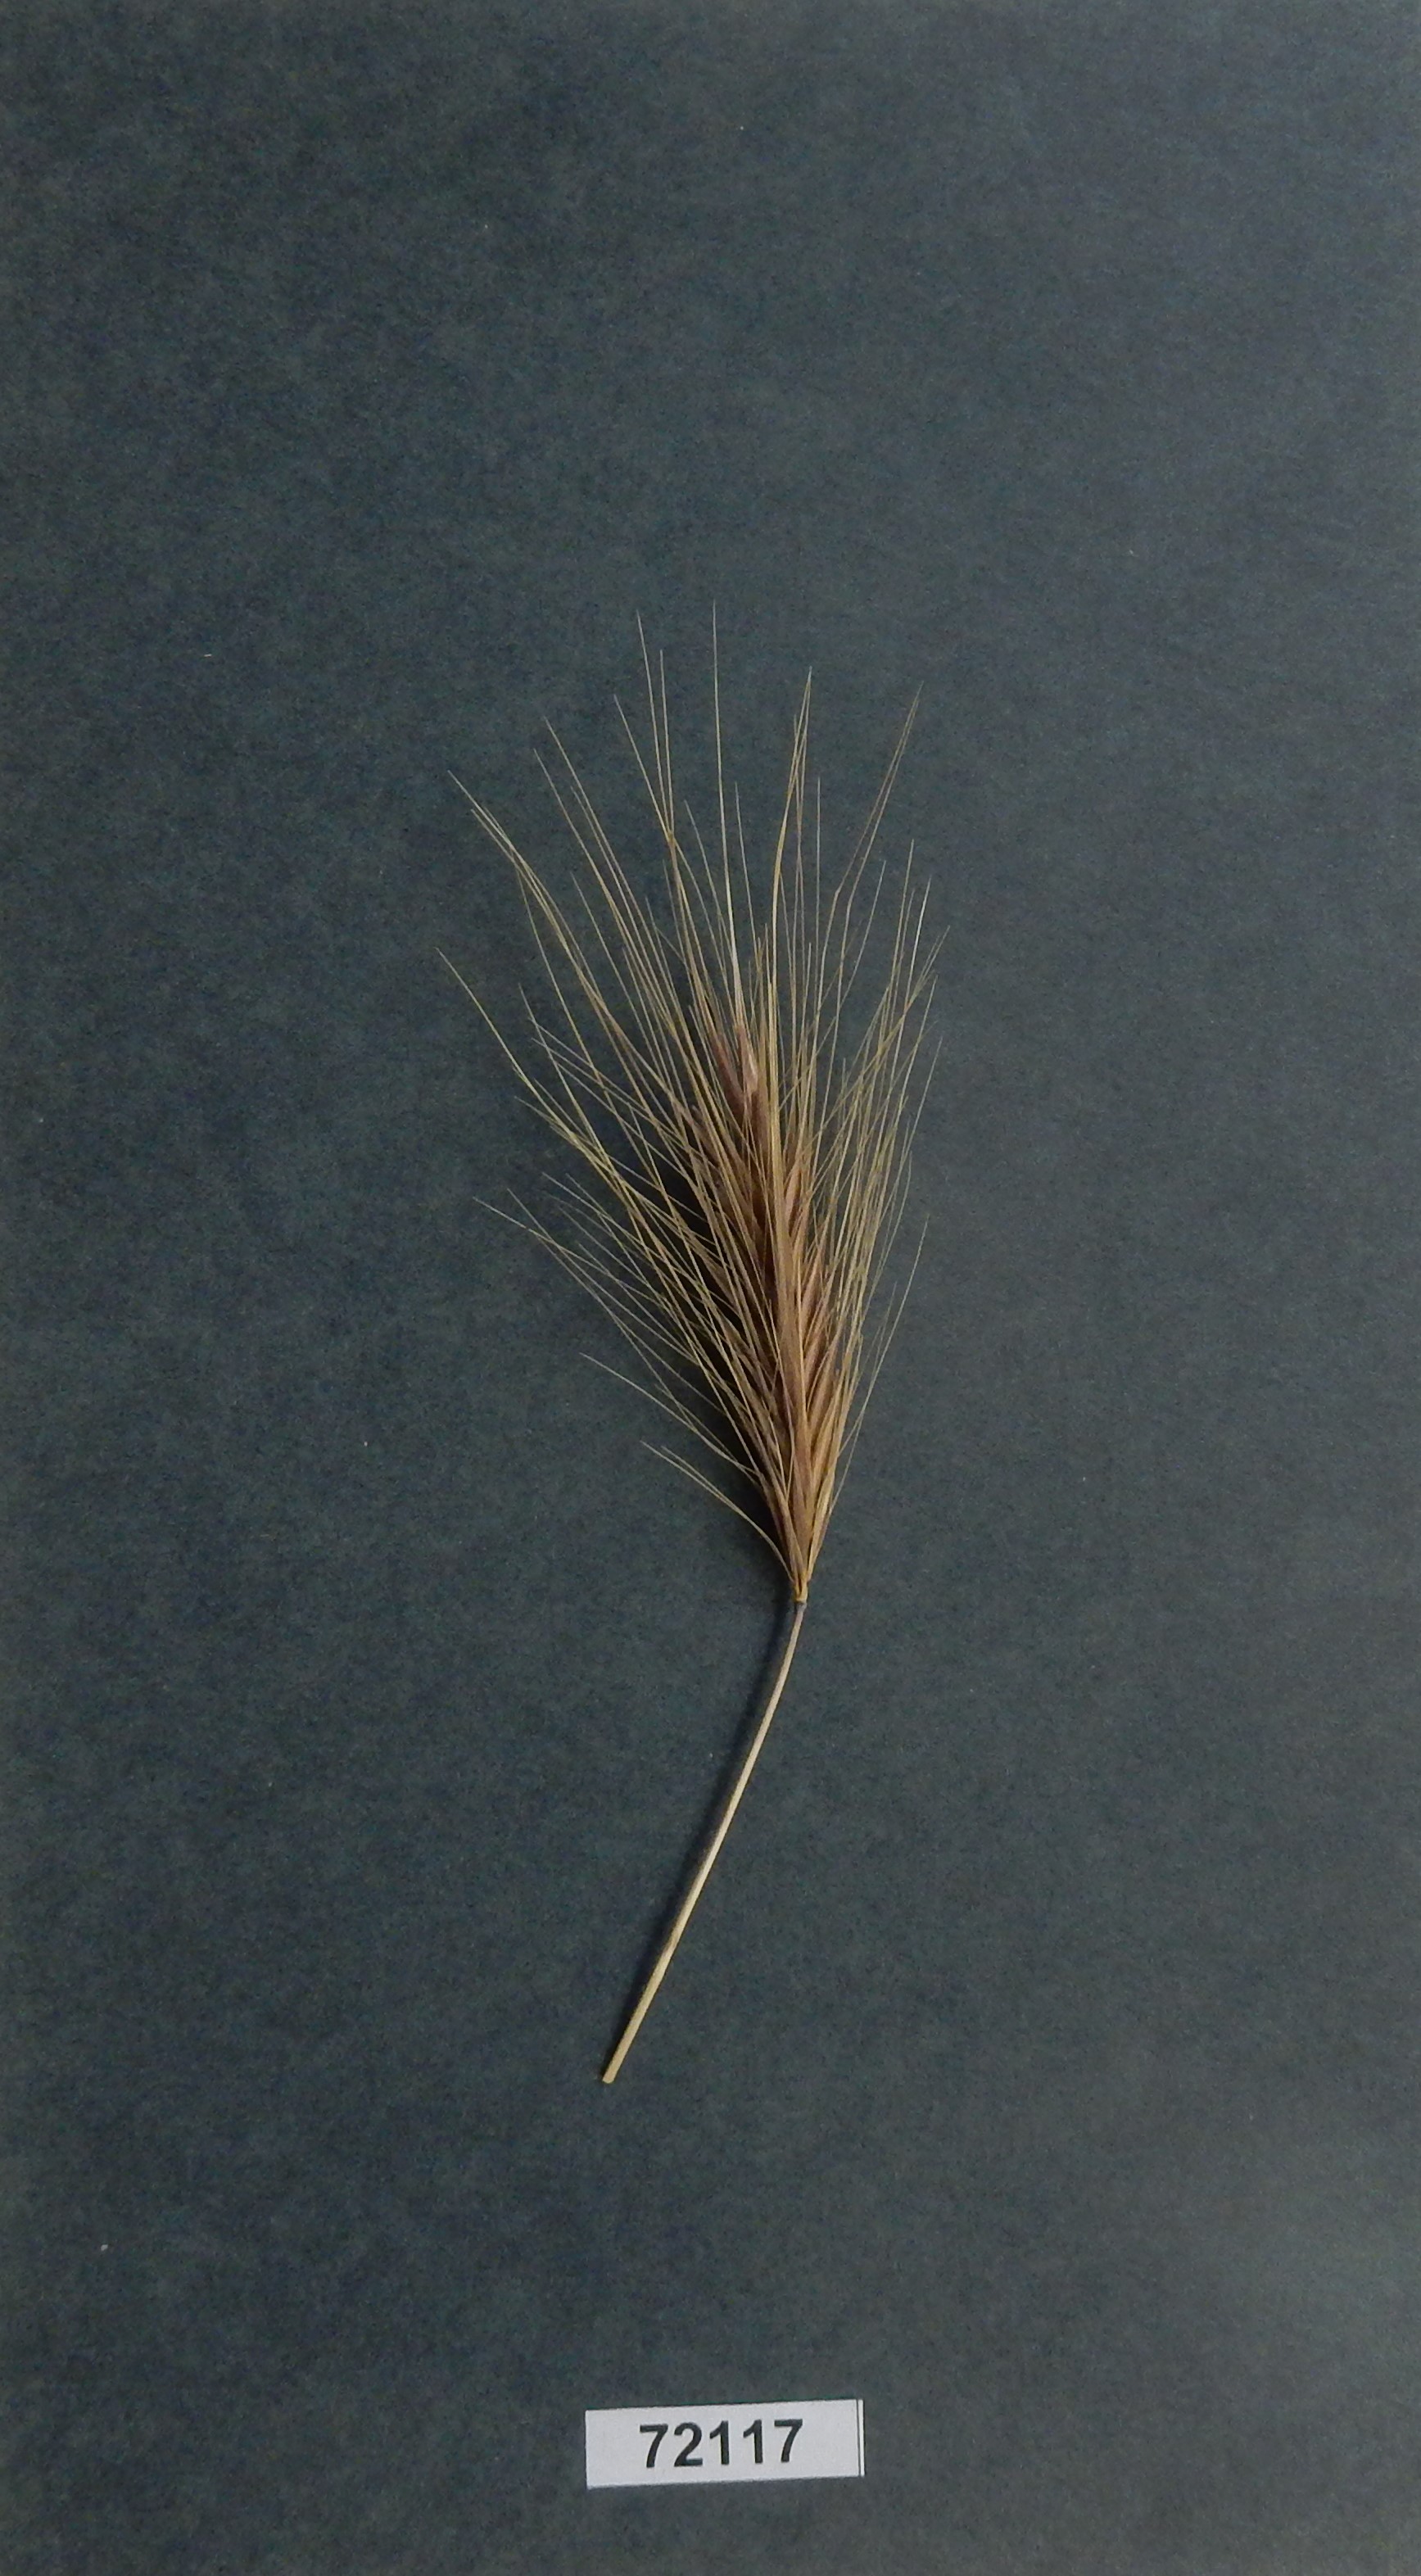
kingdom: Plantae
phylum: Tracheophyta
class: Liliopsida
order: Poales
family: Poaceae
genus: Hordeum
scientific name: Hordeum murinum
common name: Wall Barley
